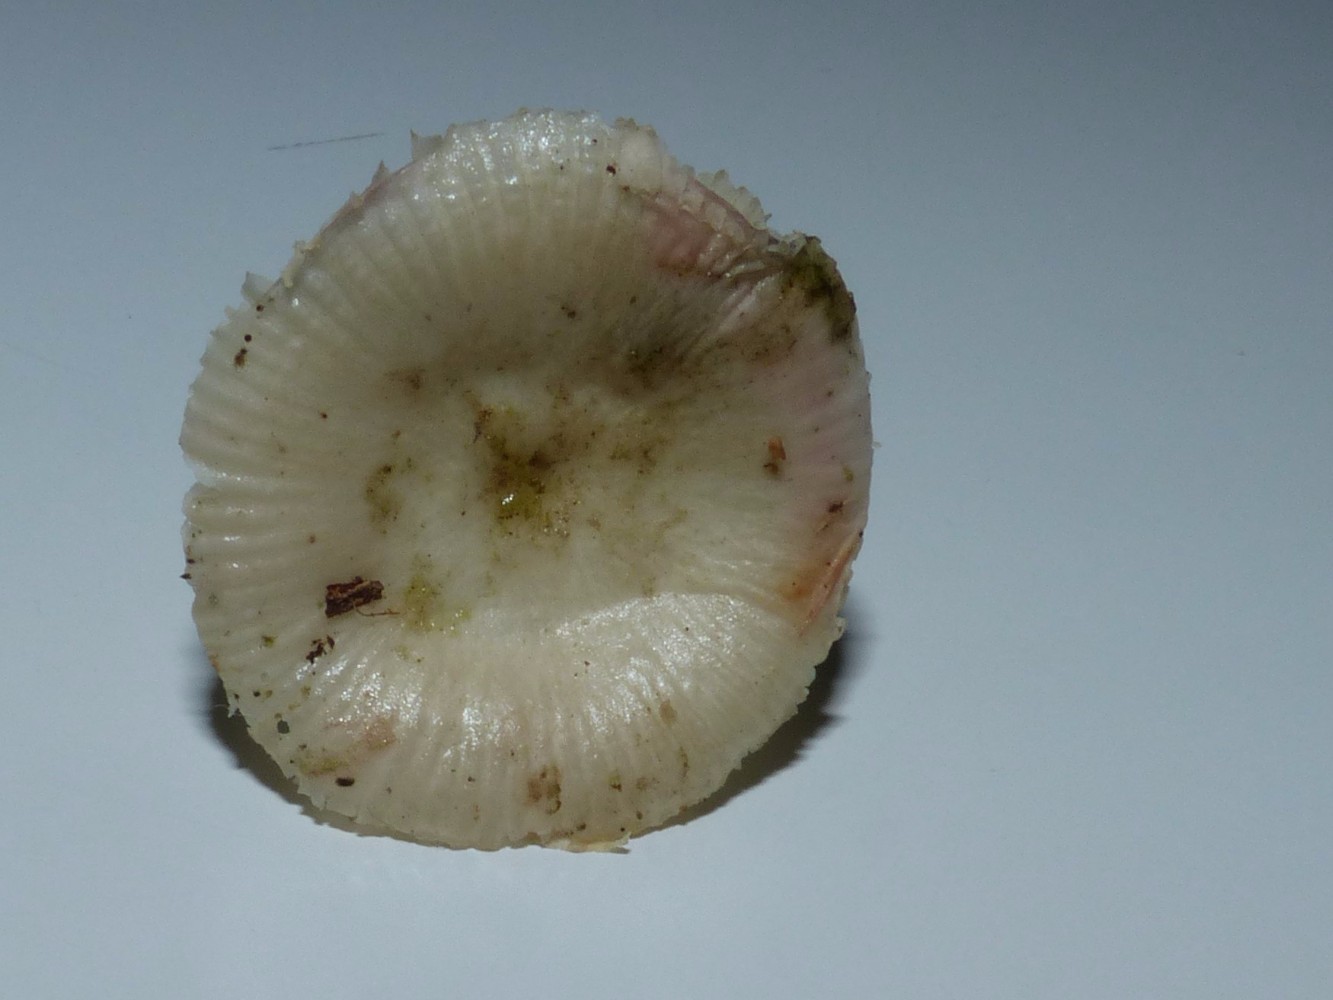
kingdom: Fungi
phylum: Basidiomycota
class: Agaricomycetes
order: Russulales
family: Russulaceae
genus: Russula
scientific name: Russula
